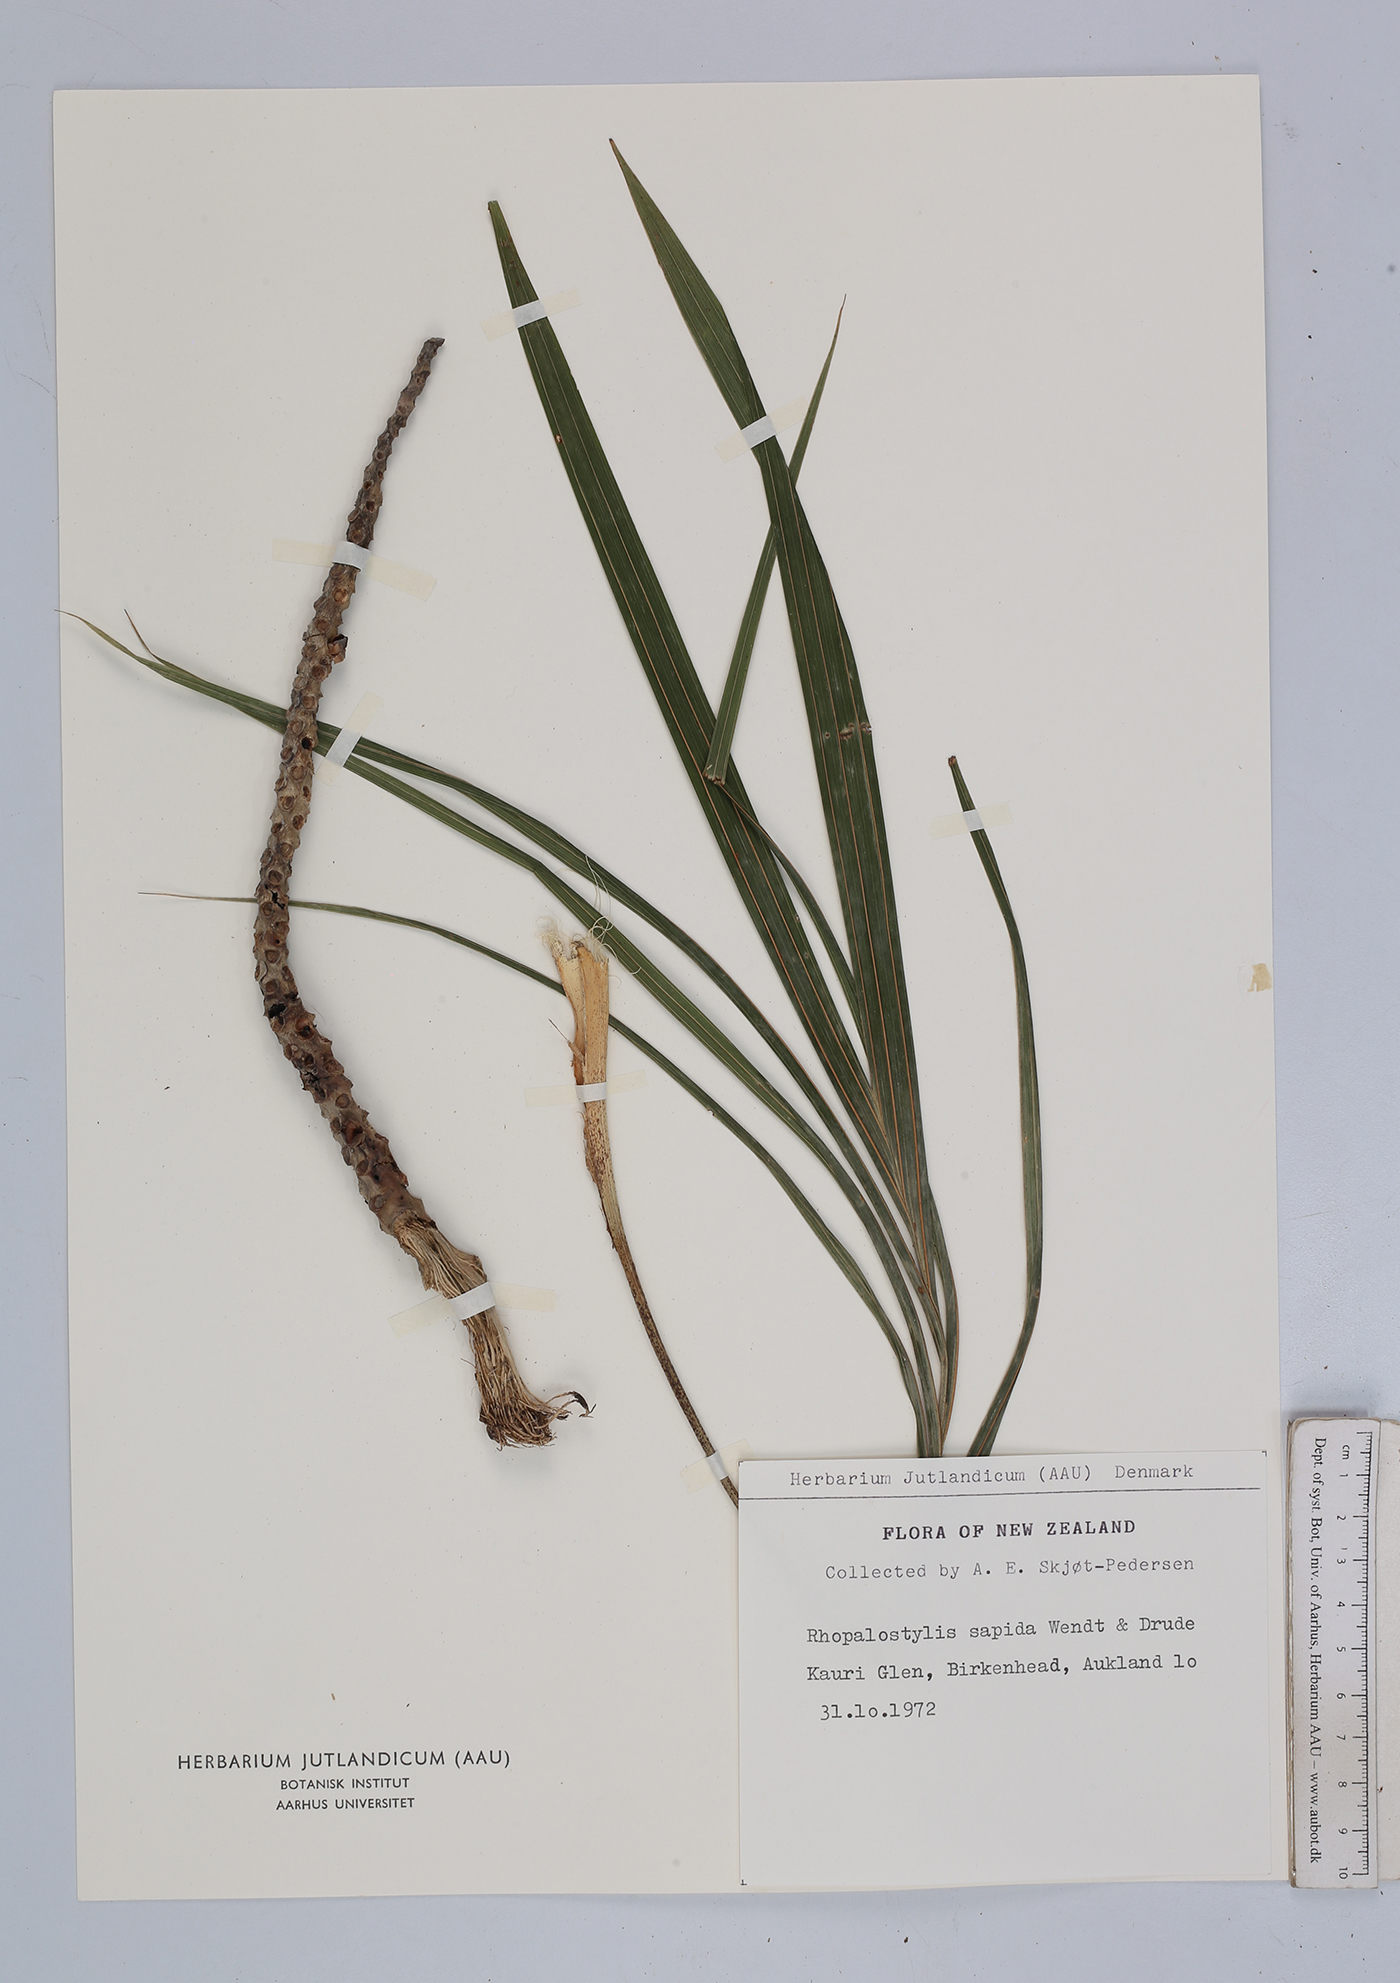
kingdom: Plantae
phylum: Tracheophyta
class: Liliopsida
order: Arecales
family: Arecaceae
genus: Rhopalostylis
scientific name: Rhopalostylis sapida
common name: Feather-duster palm
